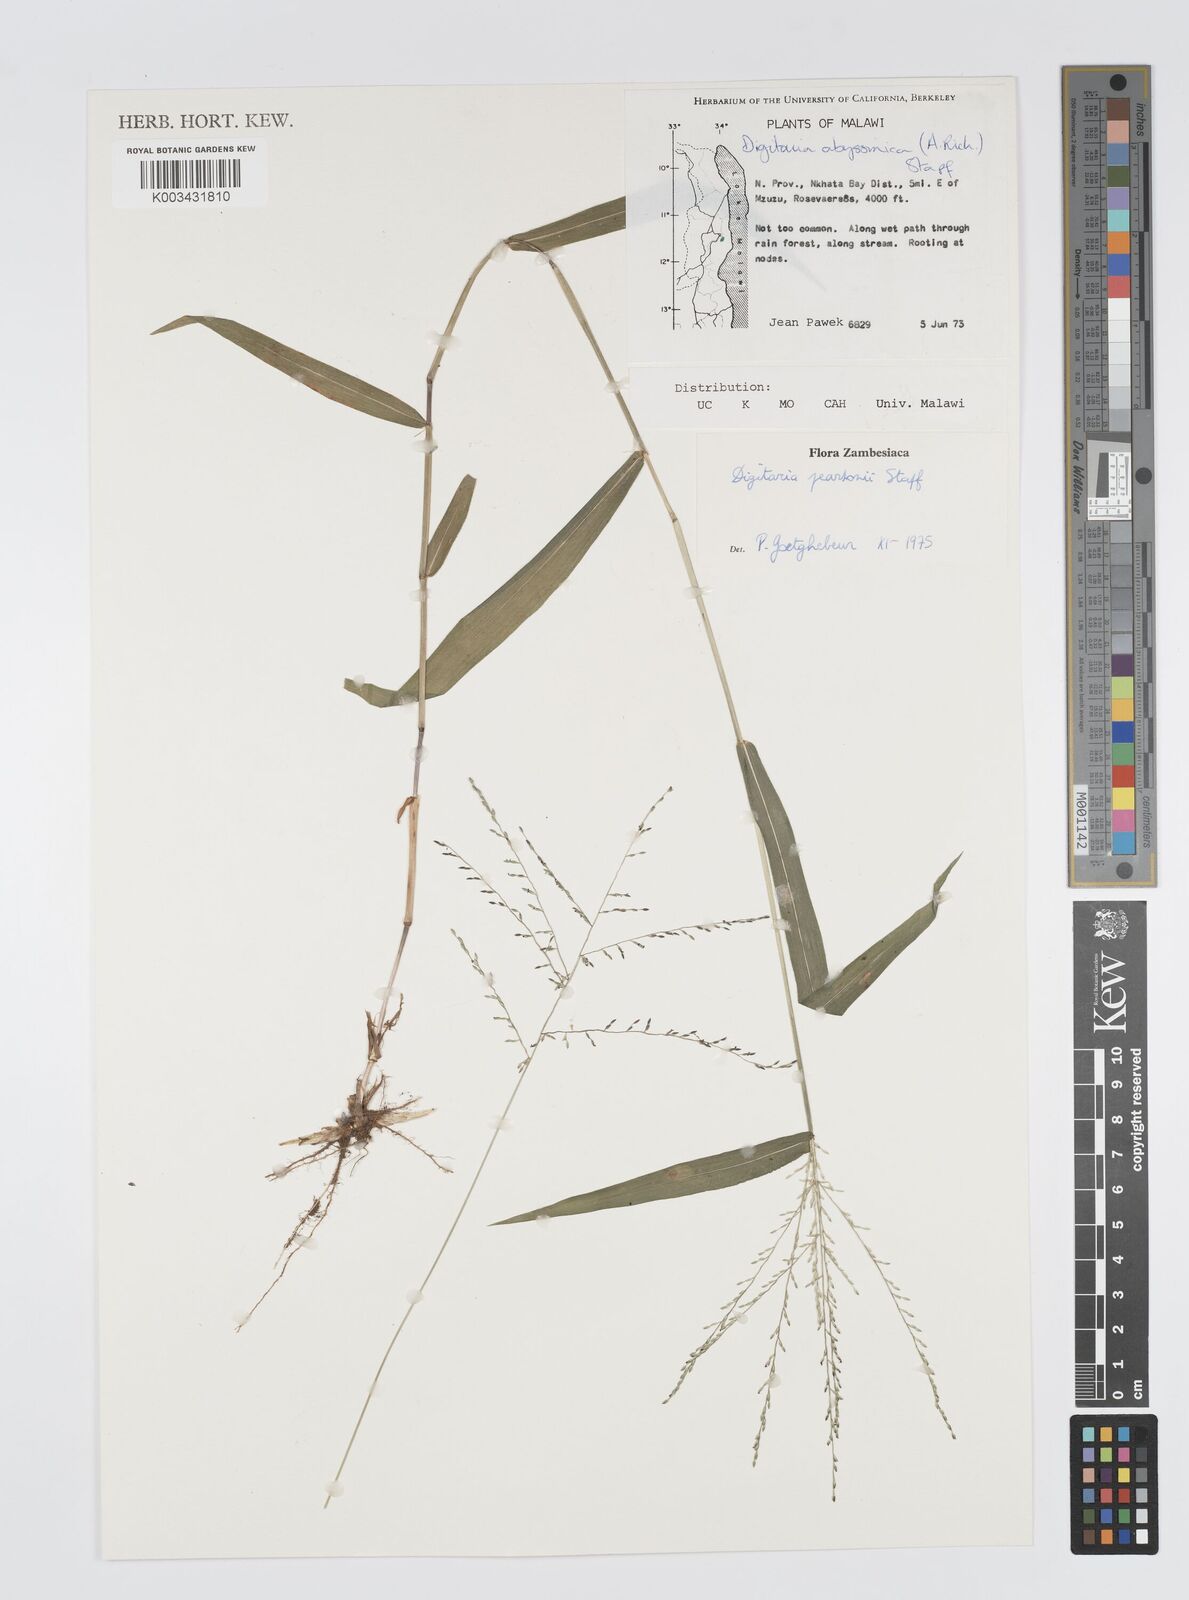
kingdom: Plantae
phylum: Tracheophyta
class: Liliopsida
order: Poales
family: Poaceae
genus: Digitaria
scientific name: Digitaria pearsonii
